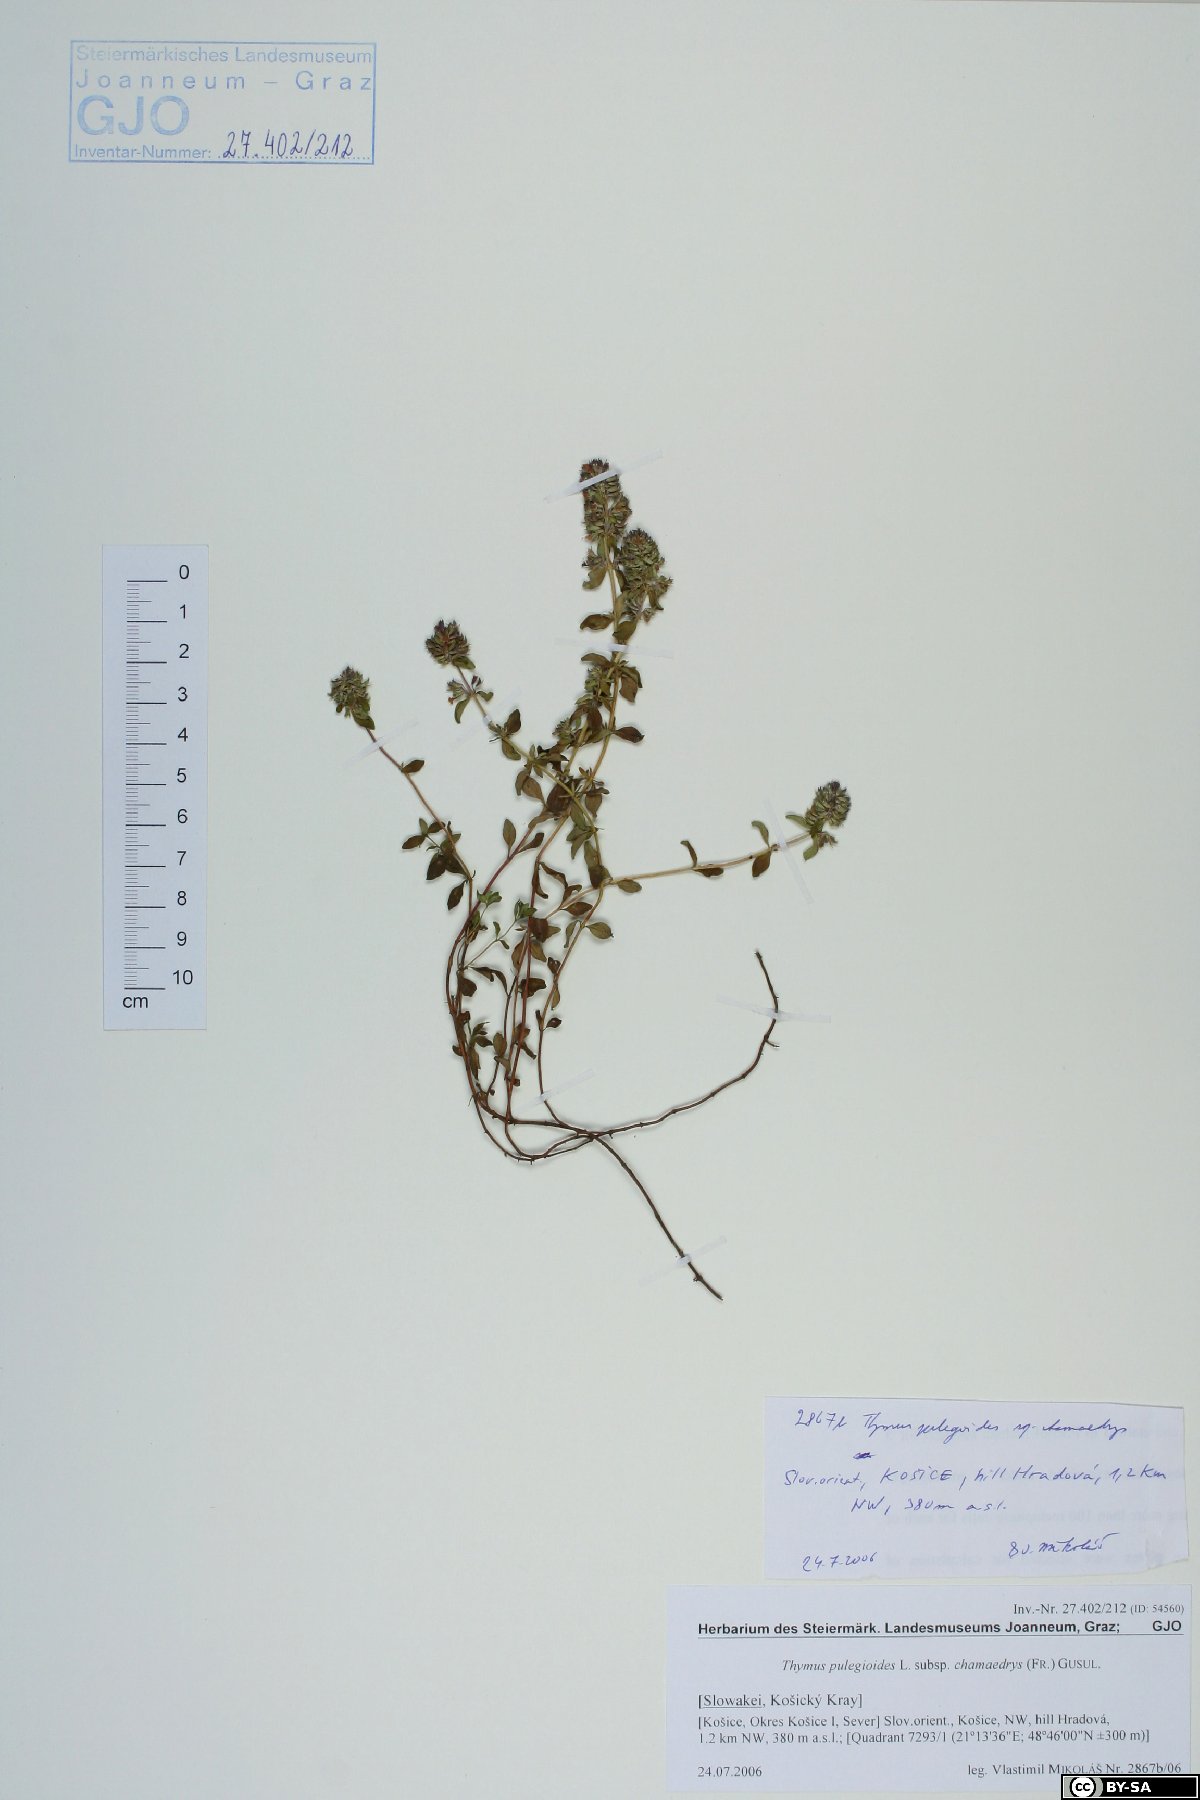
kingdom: Plantae
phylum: Tracheophyta
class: Magnoliopsida
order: Lamiales
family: Lamiaceae
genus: Thymus
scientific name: Thymus pulegioides
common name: Large thyme
